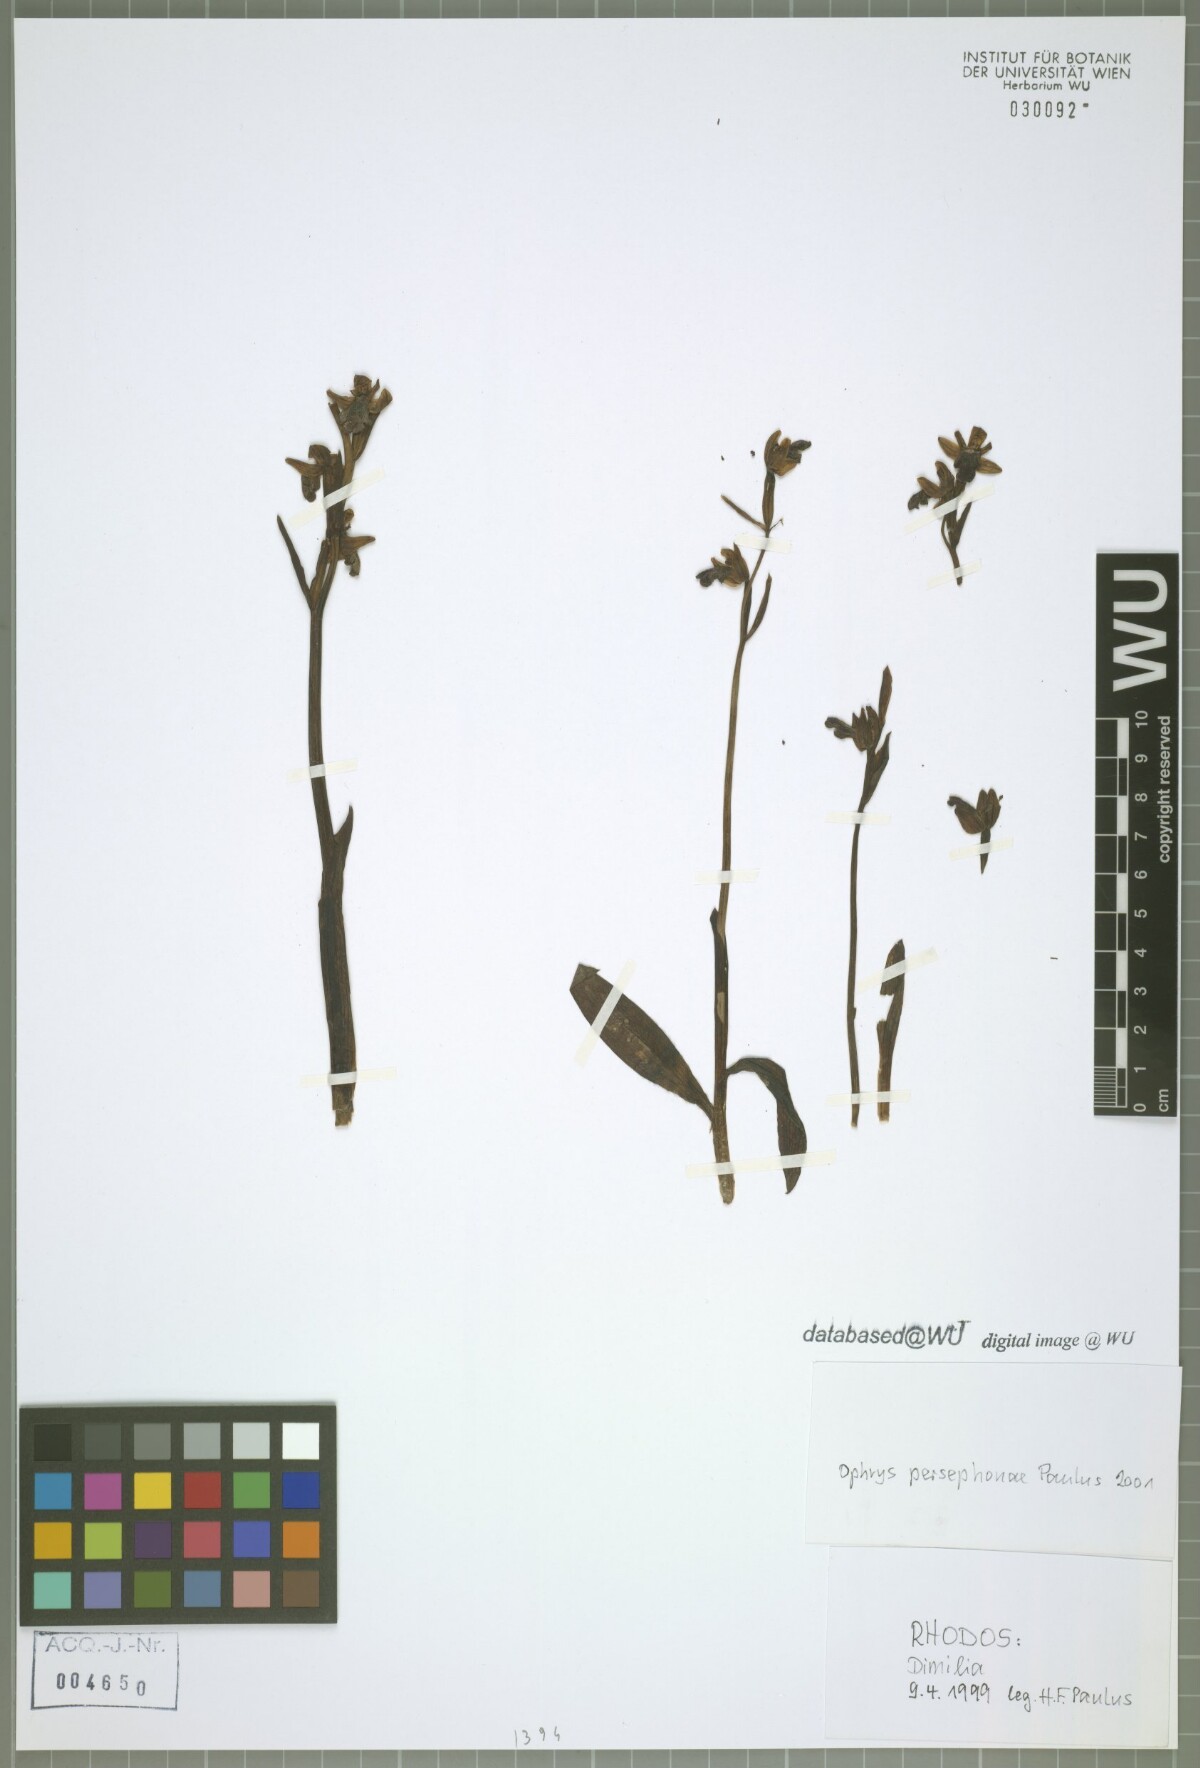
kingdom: Plantae
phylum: Tracheophyta
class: Liliopsida
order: Asparagales
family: Orchidaceae
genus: Ophrys
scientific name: Ophrys fusca
